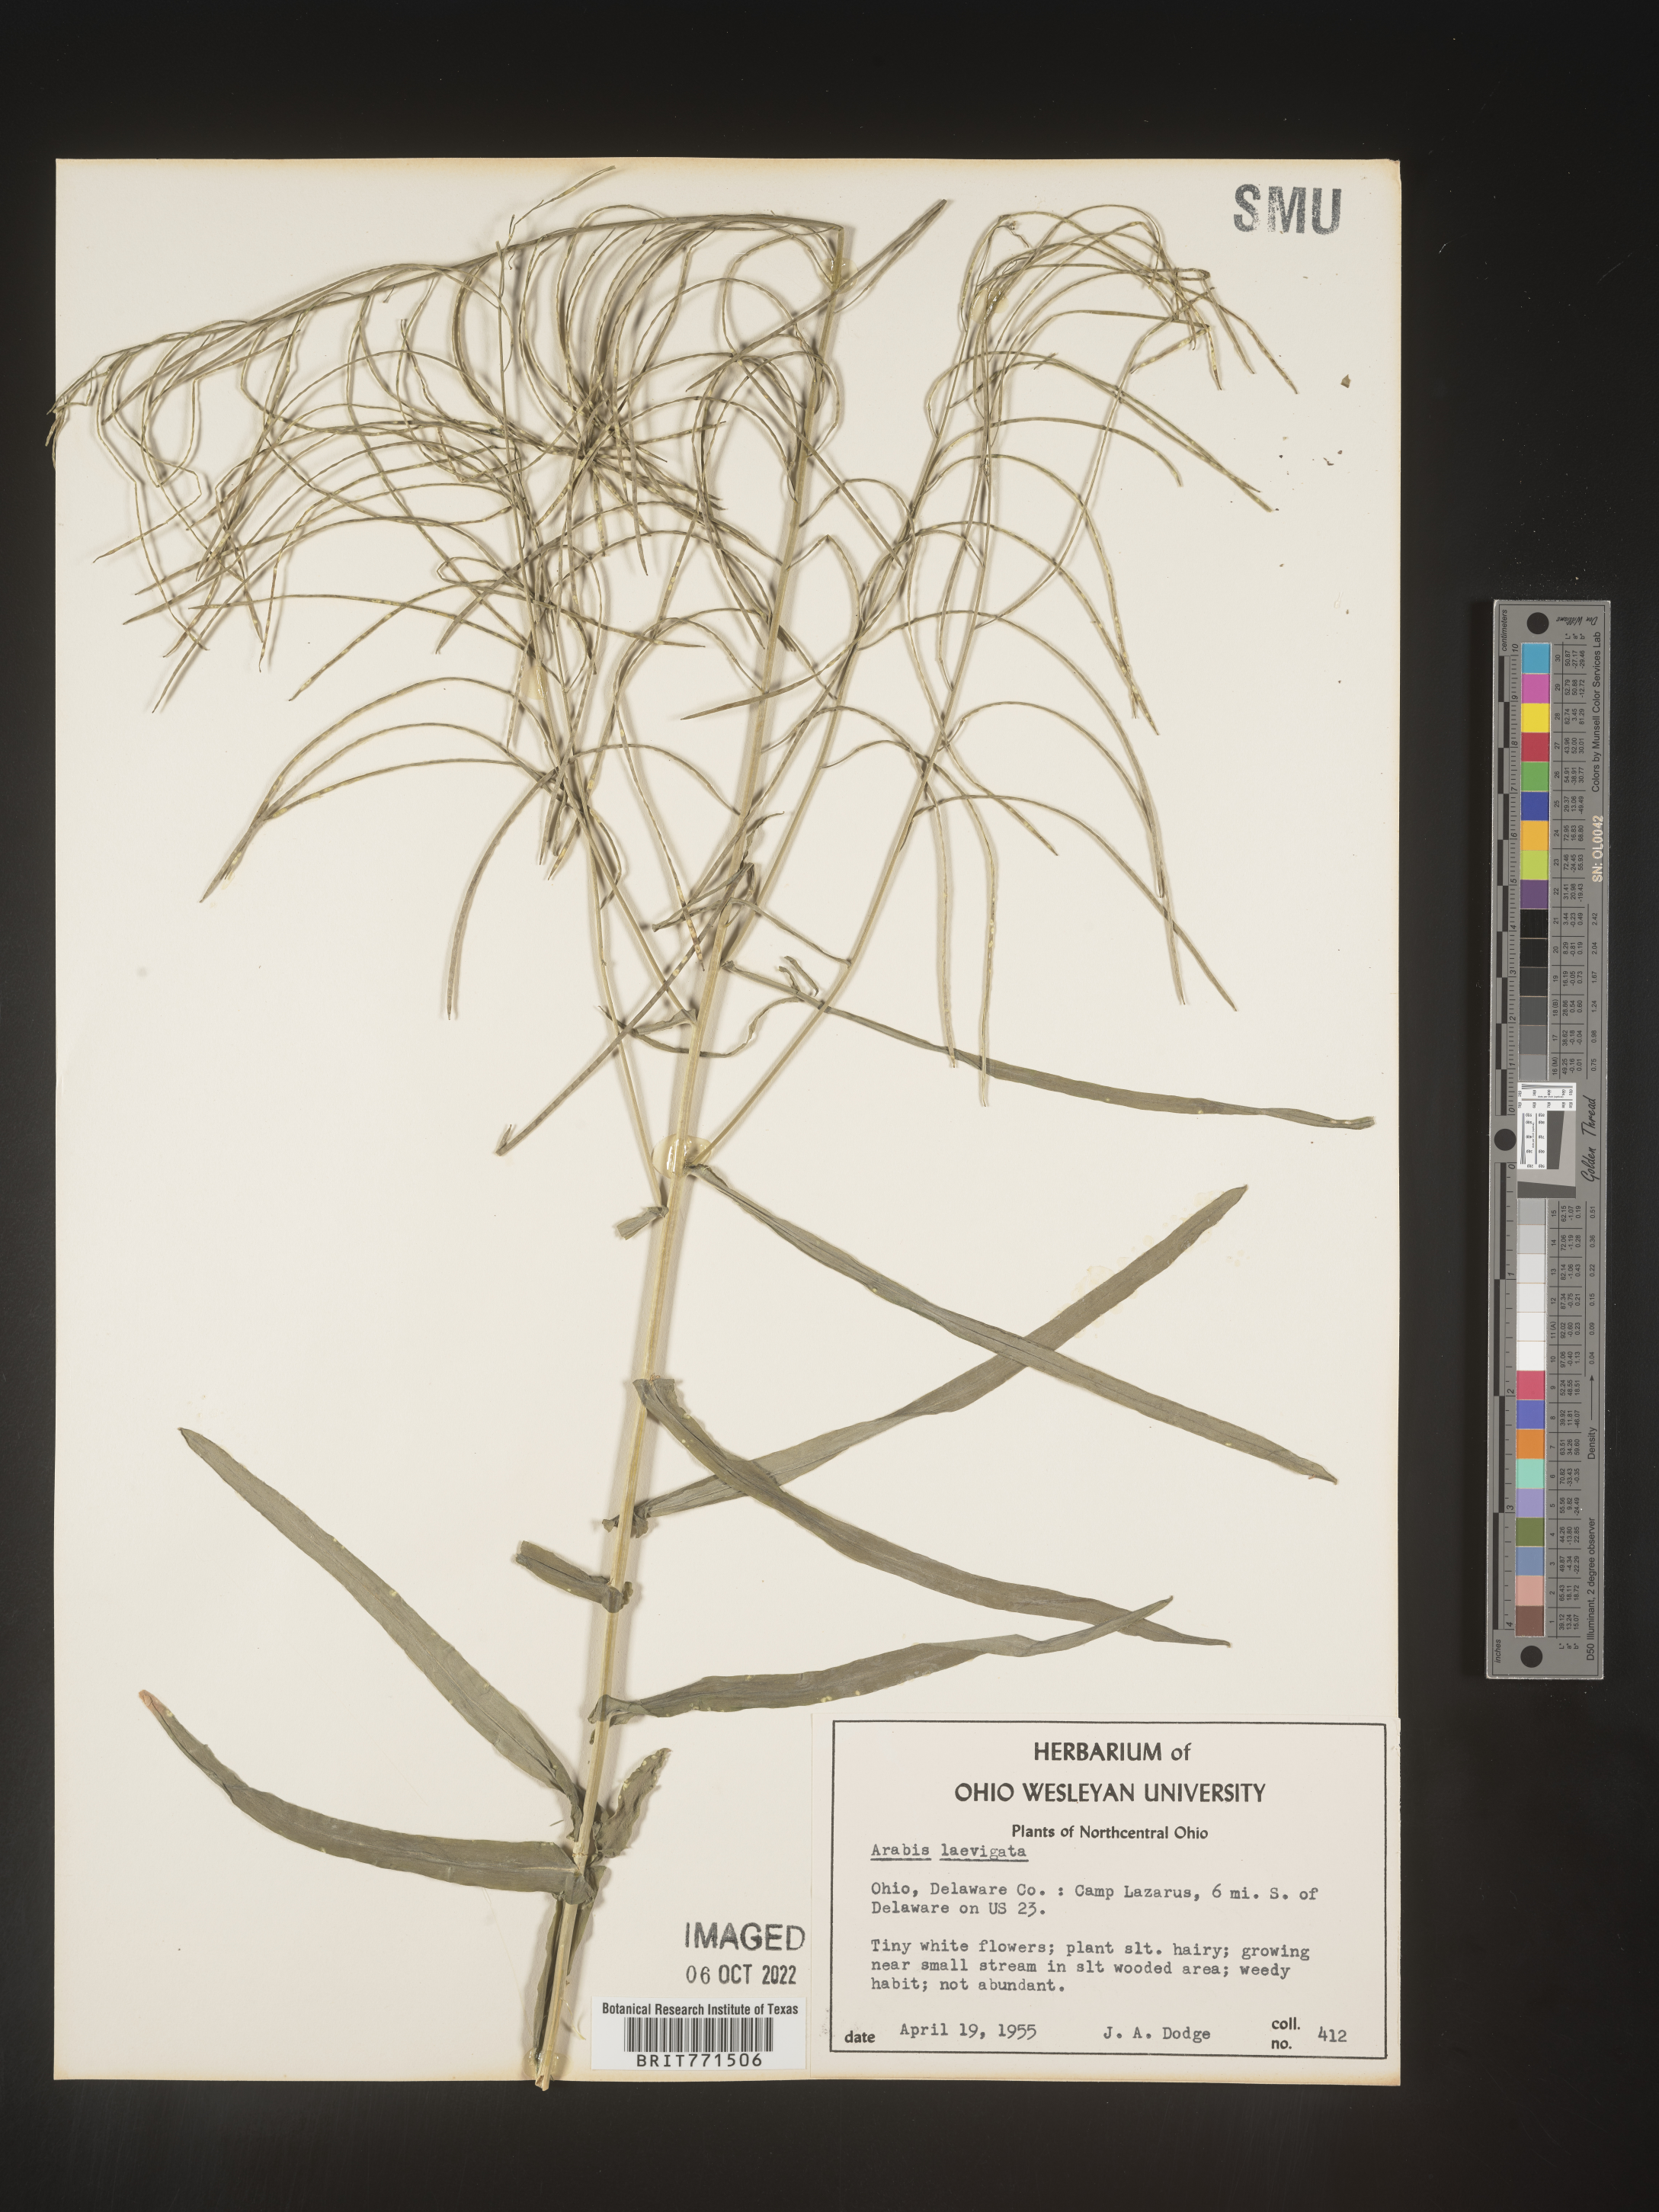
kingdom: Plantae
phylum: Tracheophyta
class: Magnoliopsida
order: Brassicales
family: Brassicaceae
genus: Arabis
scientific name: Arabis laevigata
